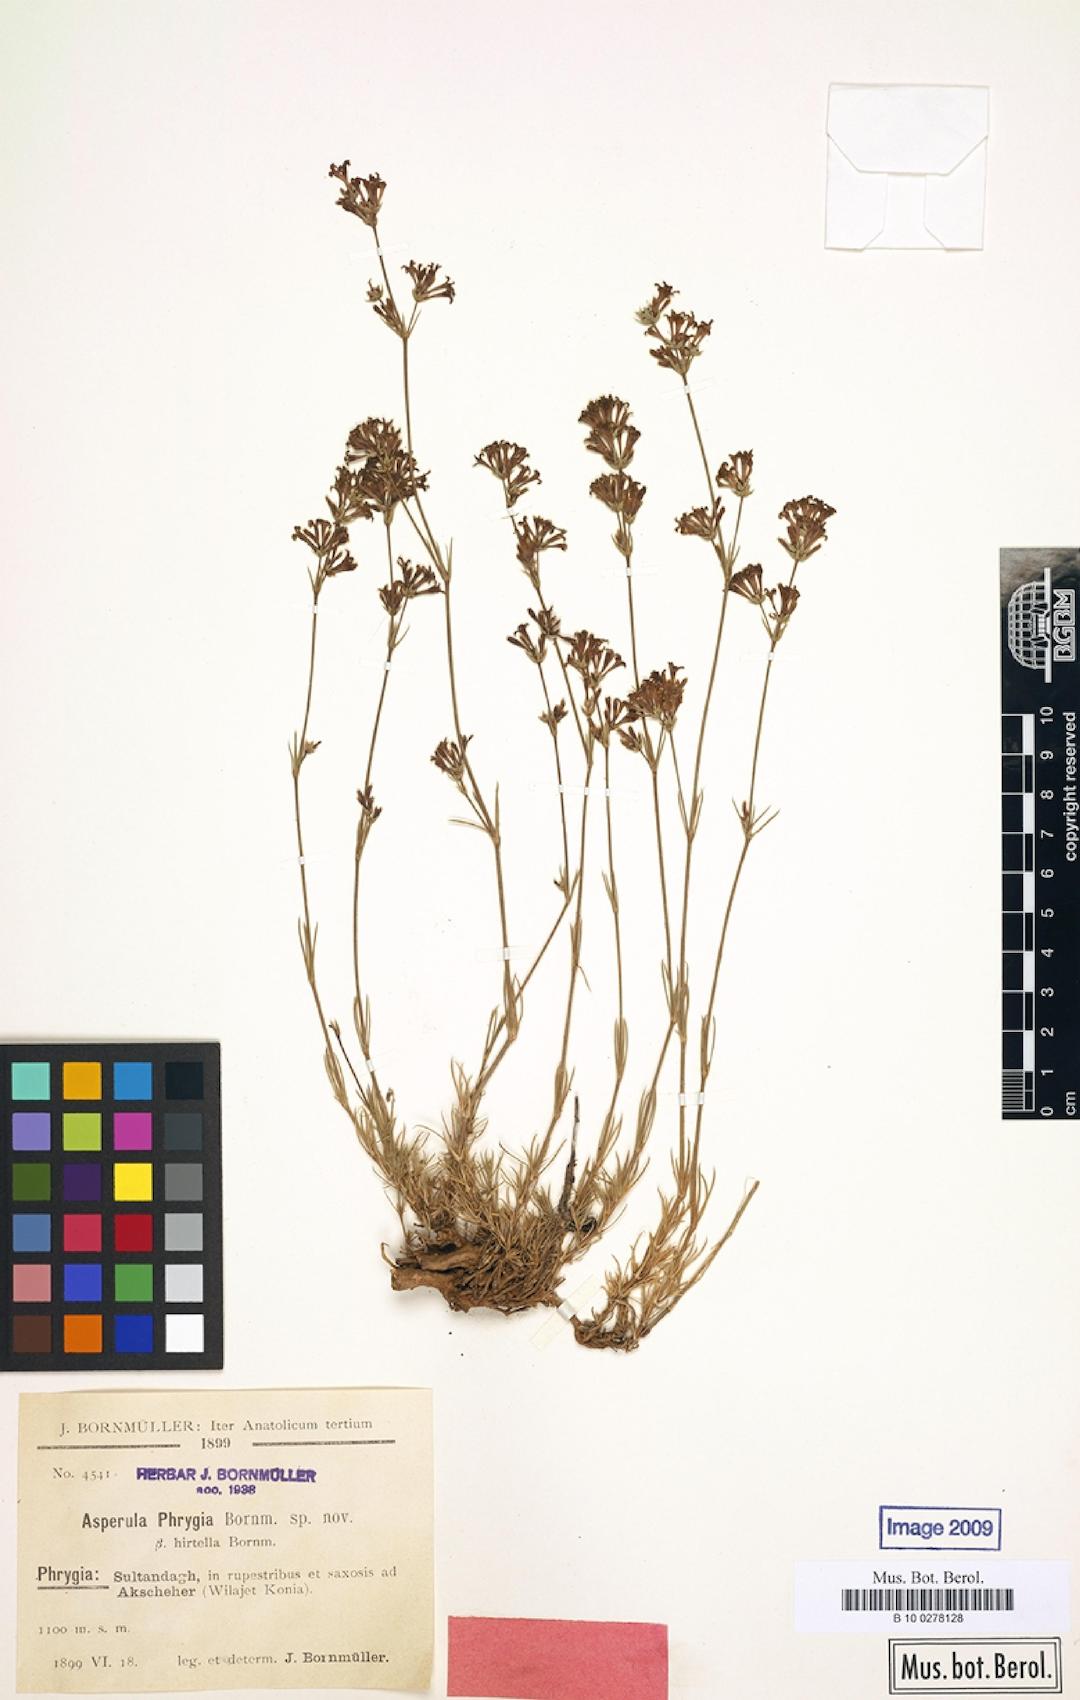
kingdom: Plantae
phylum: Tracheophyta
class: Magnoliopsida
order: Gentianales
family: Rubiaceae
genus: Cynanchica
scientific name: Cynanchica lilaciflora
